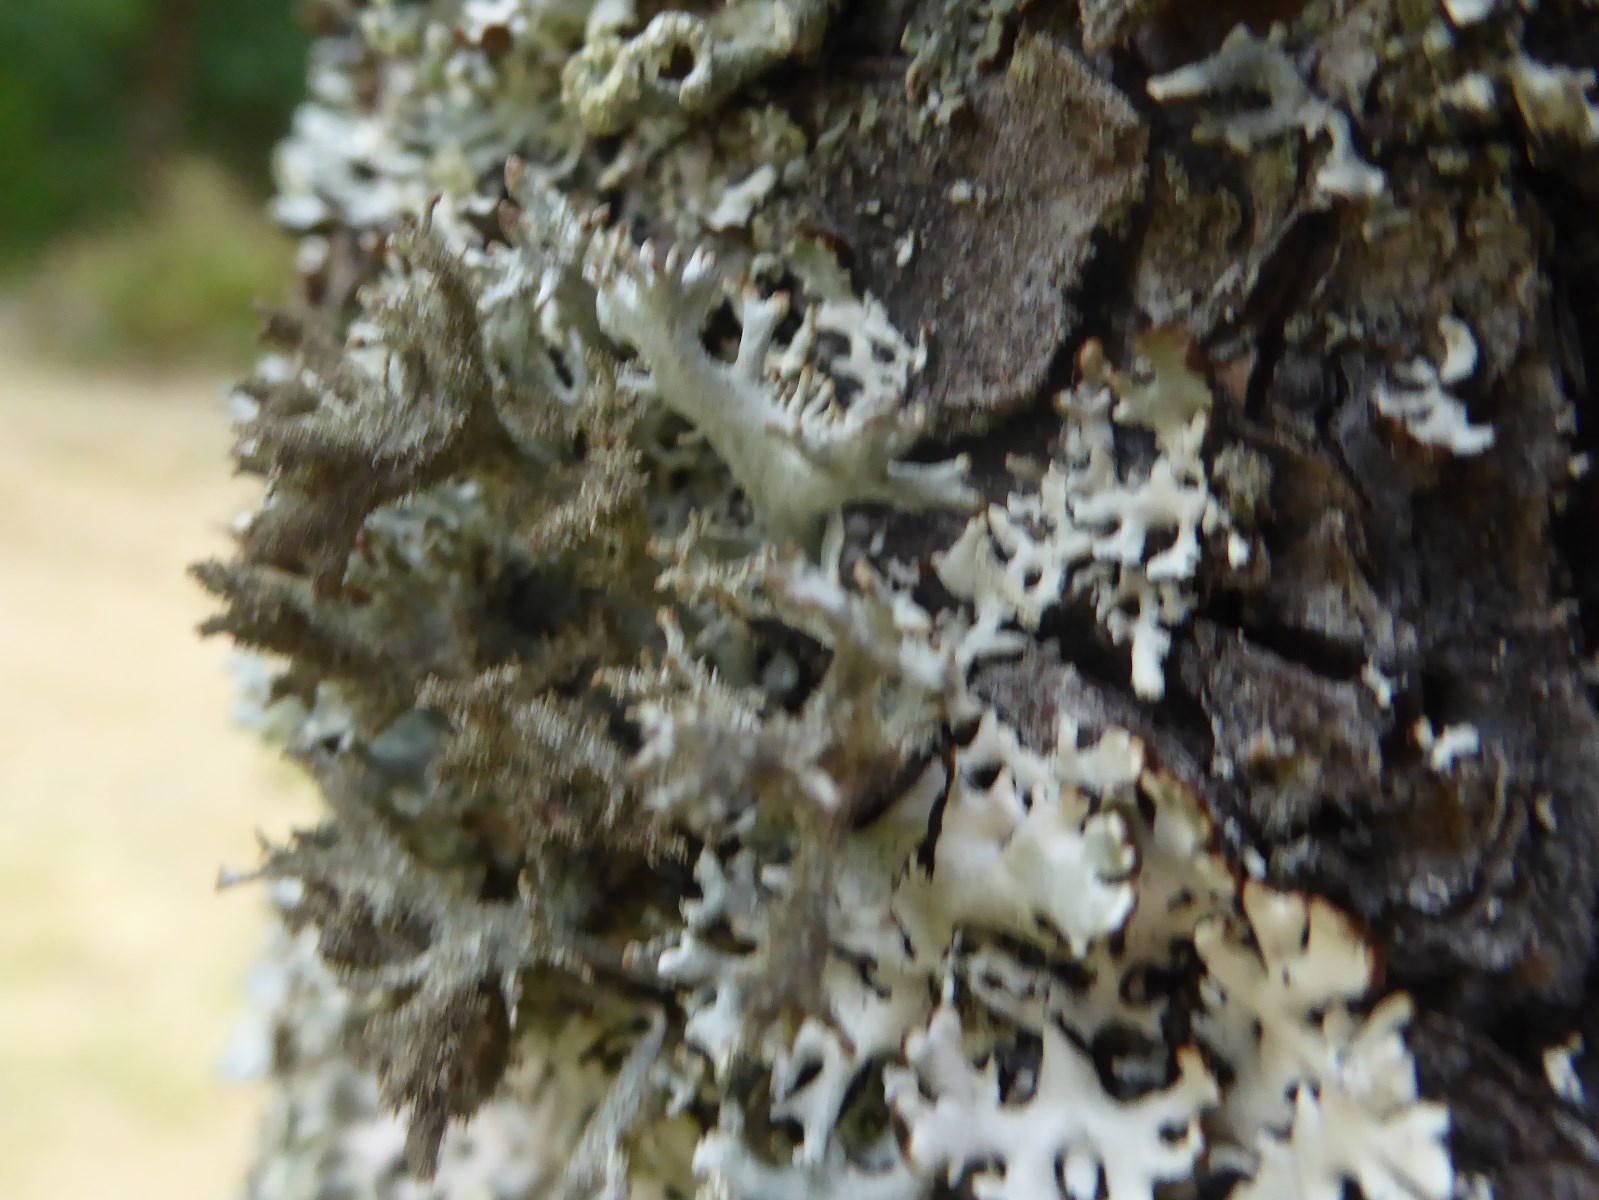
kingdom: Fungi
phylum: Ascomycota
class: Lecanoromycetes
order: Lecanorales
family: Parmeliaceae
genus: Pseudevernia
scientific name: Pseudevernia furfuracea
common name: grå fyrrelav
